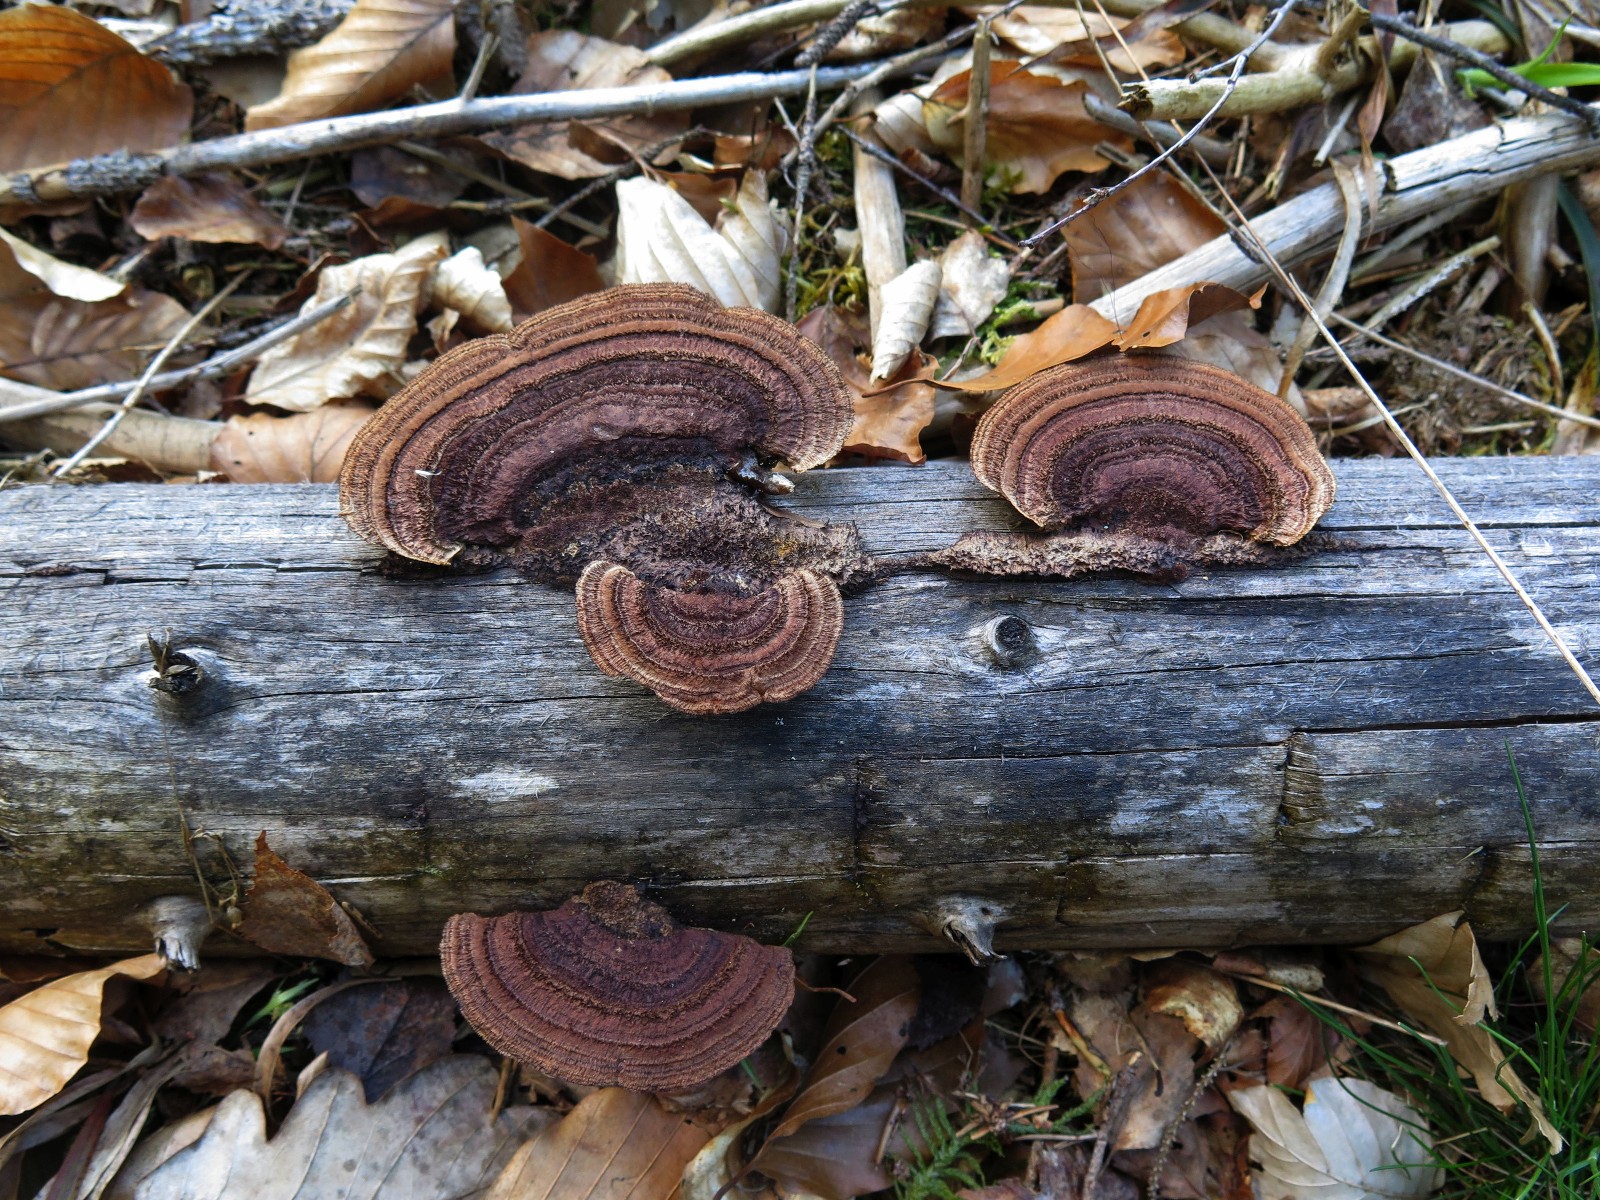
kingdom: Fungi
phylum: Basidiomycota
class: Agaricomycetes
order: Gloeophyllales
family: Gloeophyllaceae
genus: Gloeophyllum
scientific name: Gloeophyllum sepiarium
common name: fyrre-korkhat
